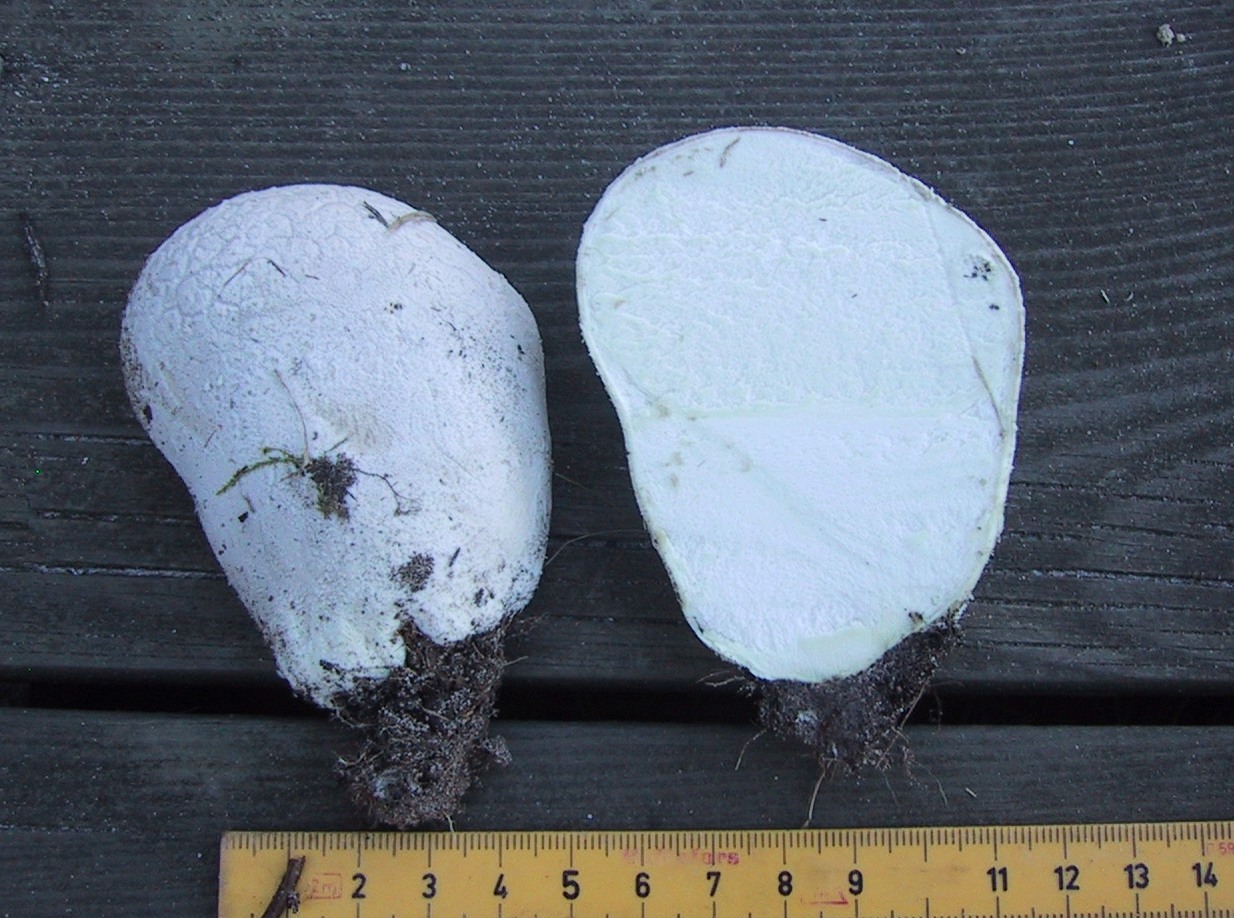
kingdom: Fungi
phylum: Basidiomycota
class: Agaricomycetes
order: Agaricales
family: Lycoperdaceae
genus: Bovistella
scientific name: Bovistella utriformis
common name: skællet støvbold
